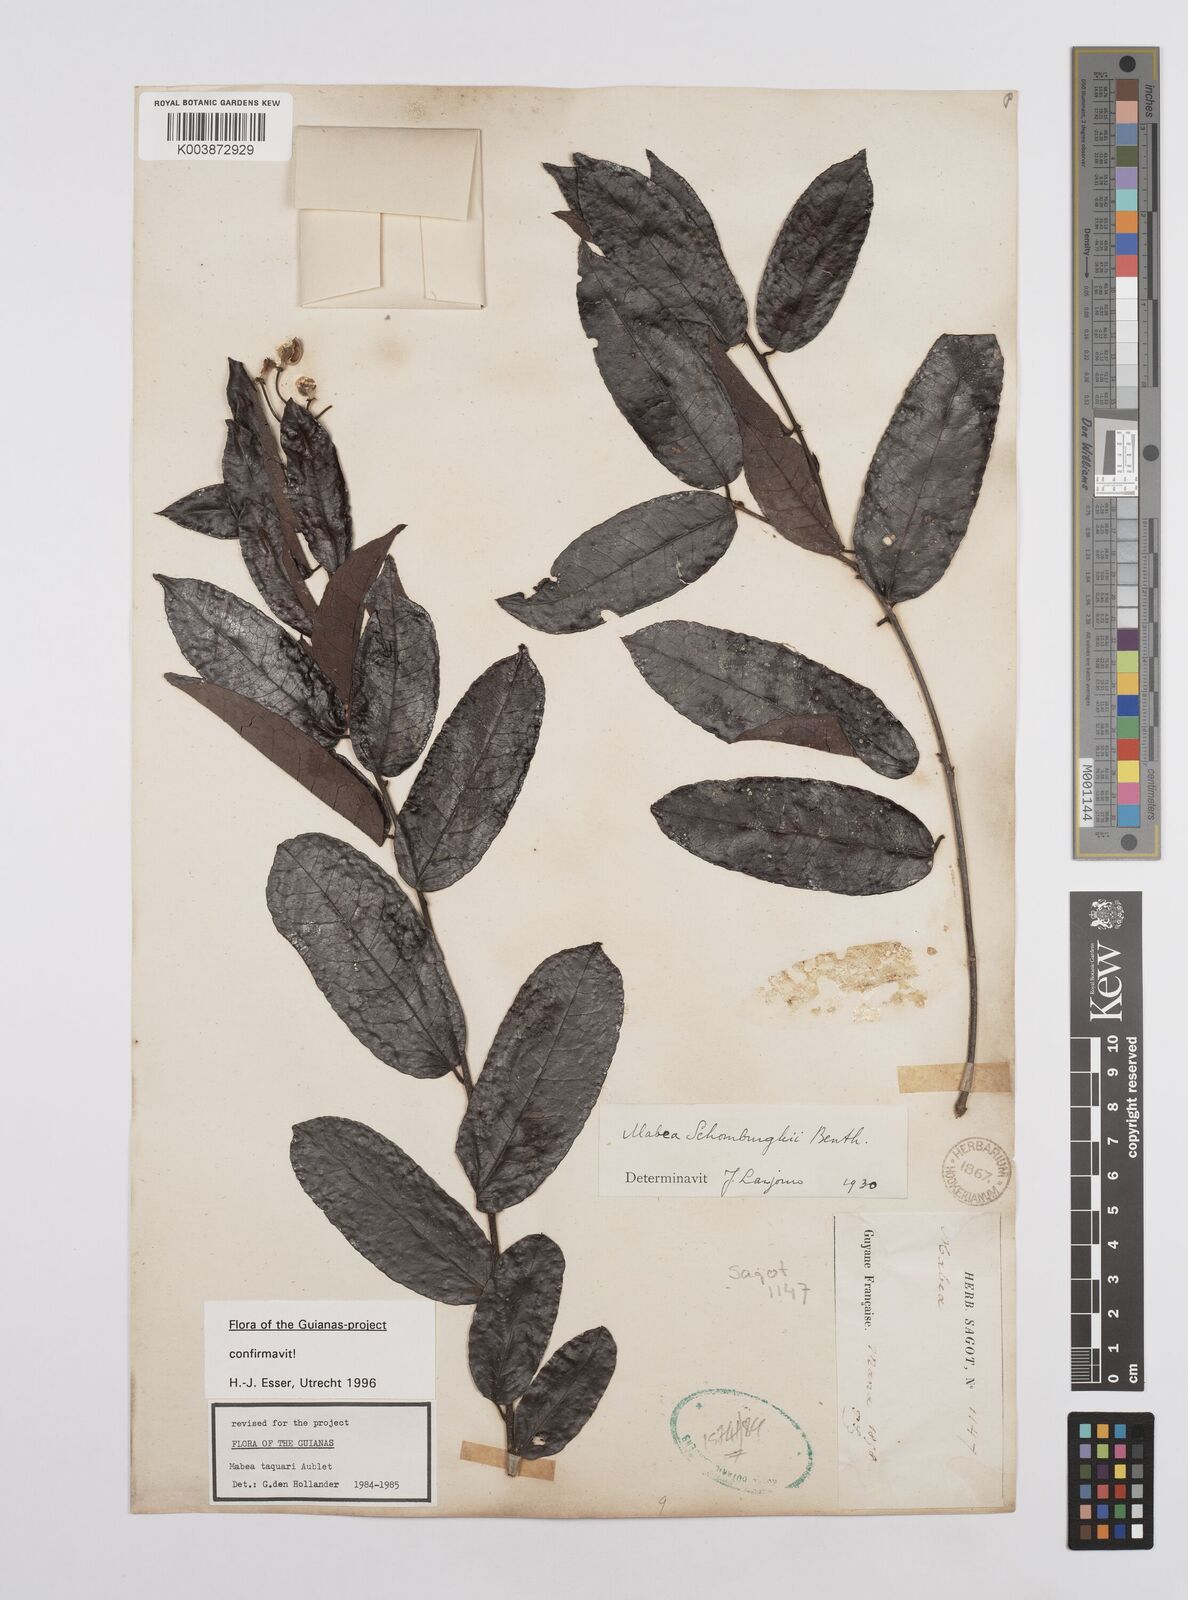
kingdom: Plantae
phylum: Tracheophyta
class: Magnoliopsida
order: Malpighiales
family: Euphorbiaceae
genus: Mabea
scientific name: Mabea taquari
